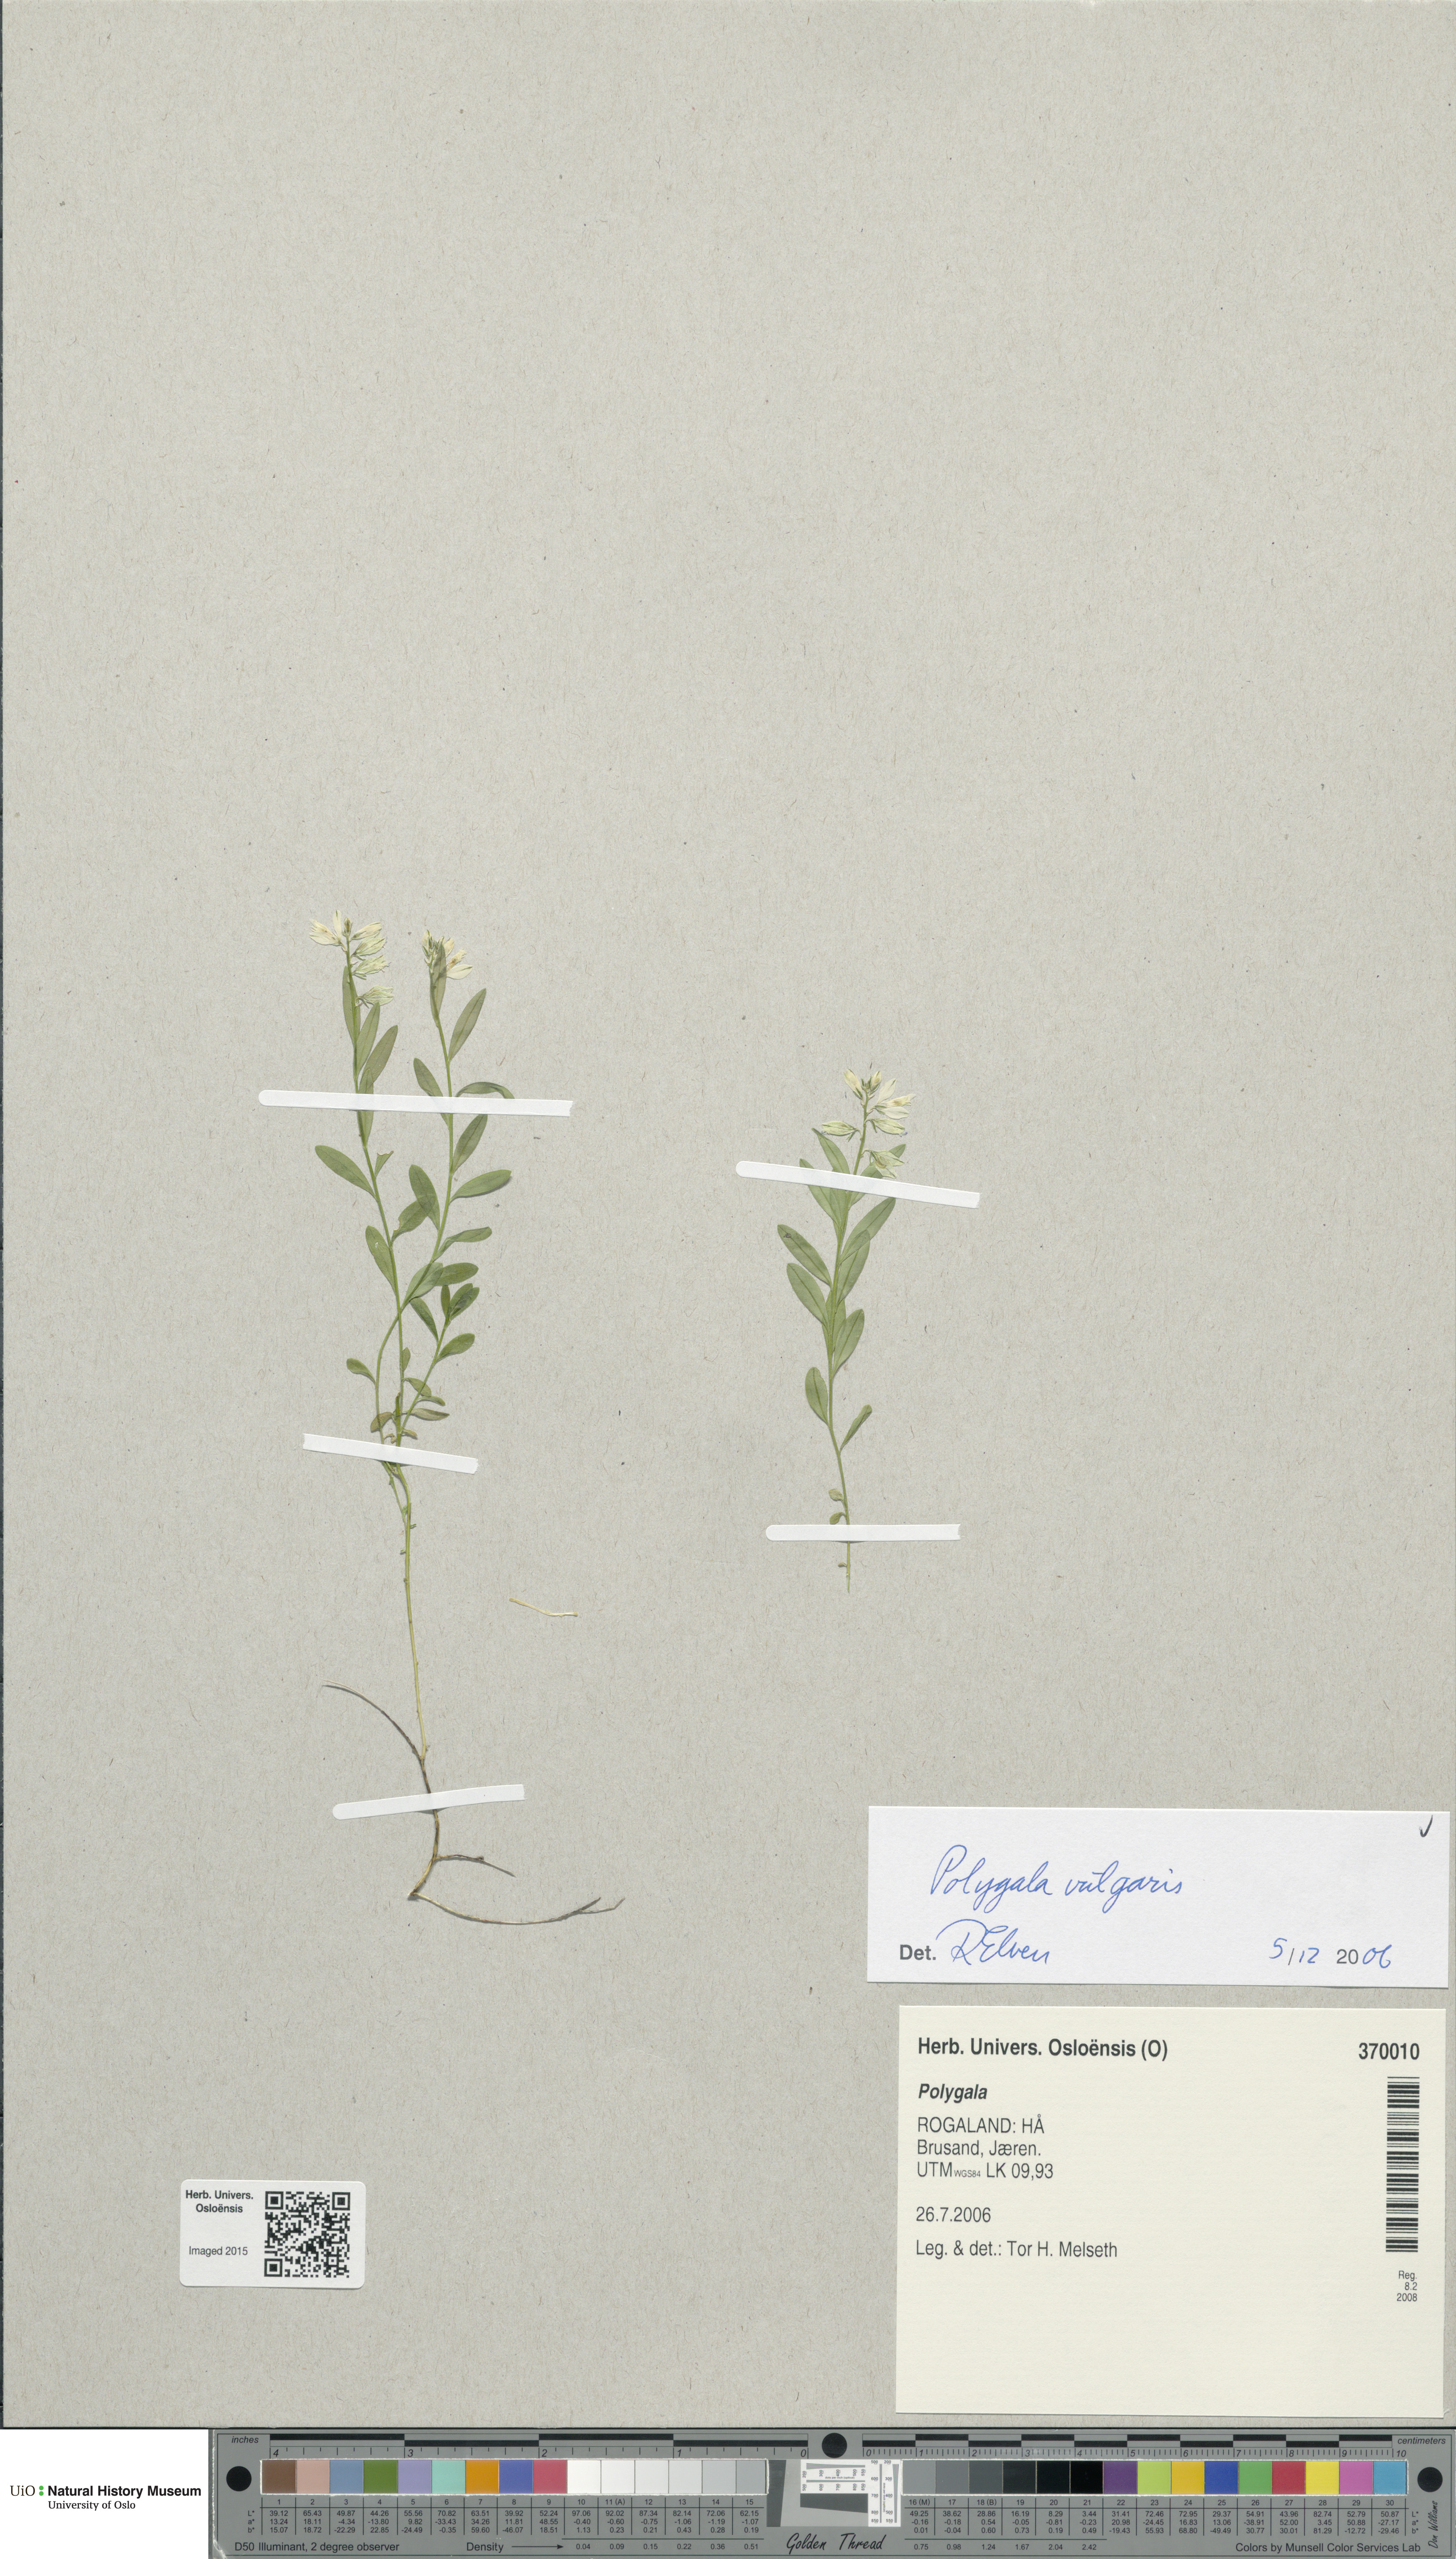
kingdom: Plantae
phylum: Tracheophyta
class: Magnoliopsida
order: Fabales
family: Polygalaceae
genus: Polygala
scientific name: Polygala vulgaris
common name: Common milkwort
